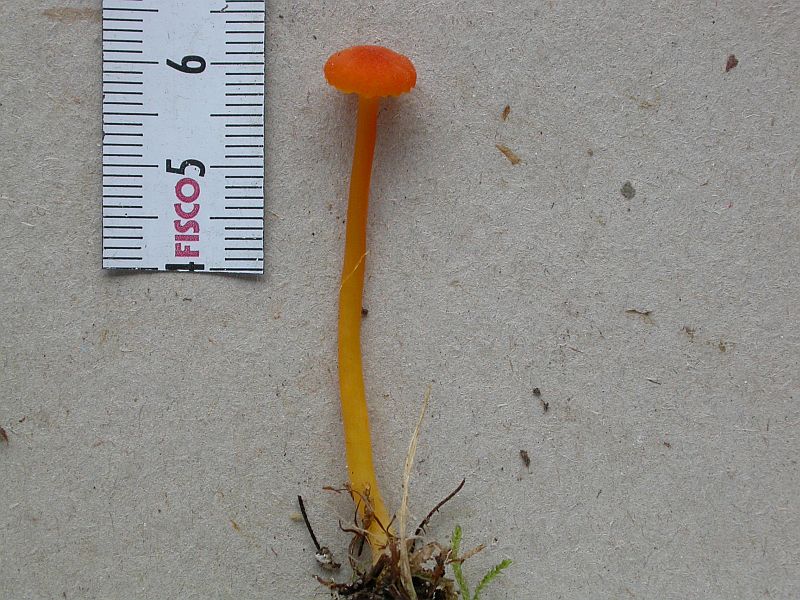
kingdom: Fungi
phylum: Basidiomycota
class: Agaricomycetes
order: Agaricales
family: Hygrophoraceae
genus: Hygrocybe
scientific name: Hygrocybe cantharellus
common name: kantarel-vokshat
